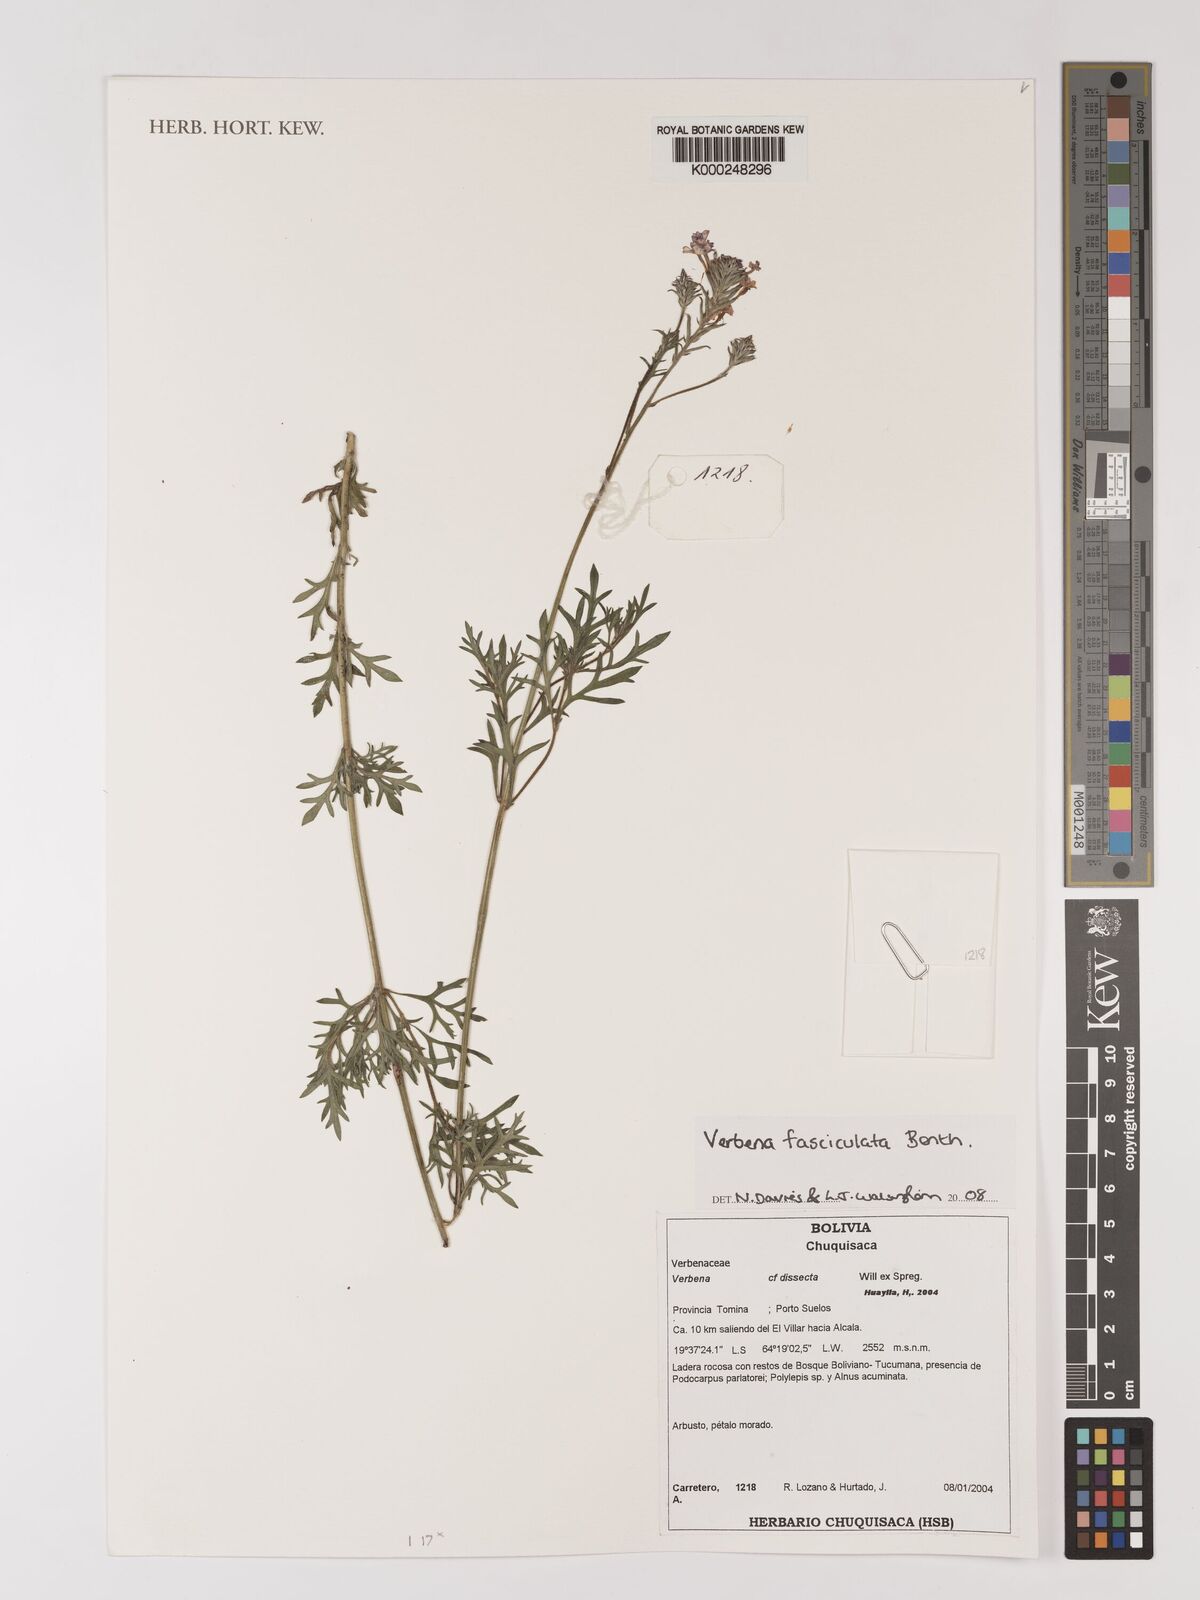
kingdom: Plantae
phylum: Tracheophyta
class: Magnoliopsida
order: Lamiales
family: Verbenaceae
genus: Junellia
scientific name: Junellia fasciculata
